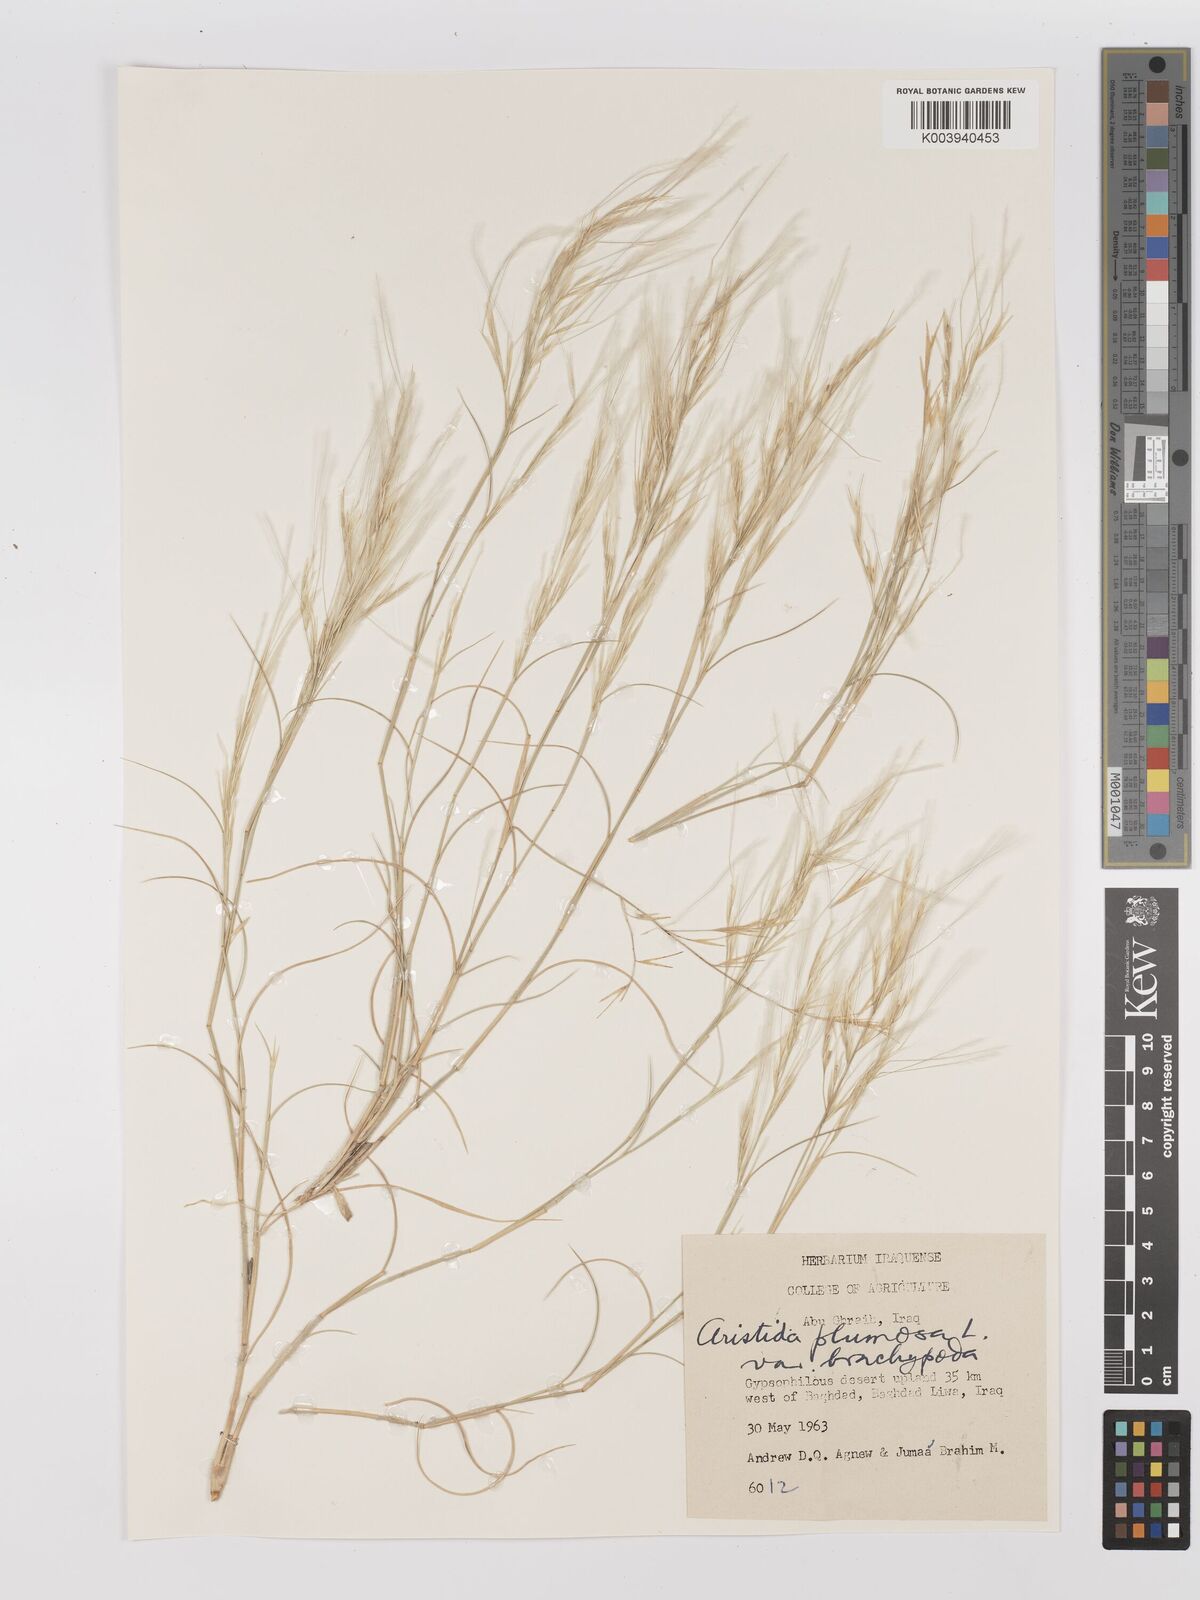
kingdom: Plantae
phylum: Tracheophyta
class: Liliopsida
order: Poales
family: Poaceae
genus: Stipagrostis
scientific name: Stipagrostis plumosa
